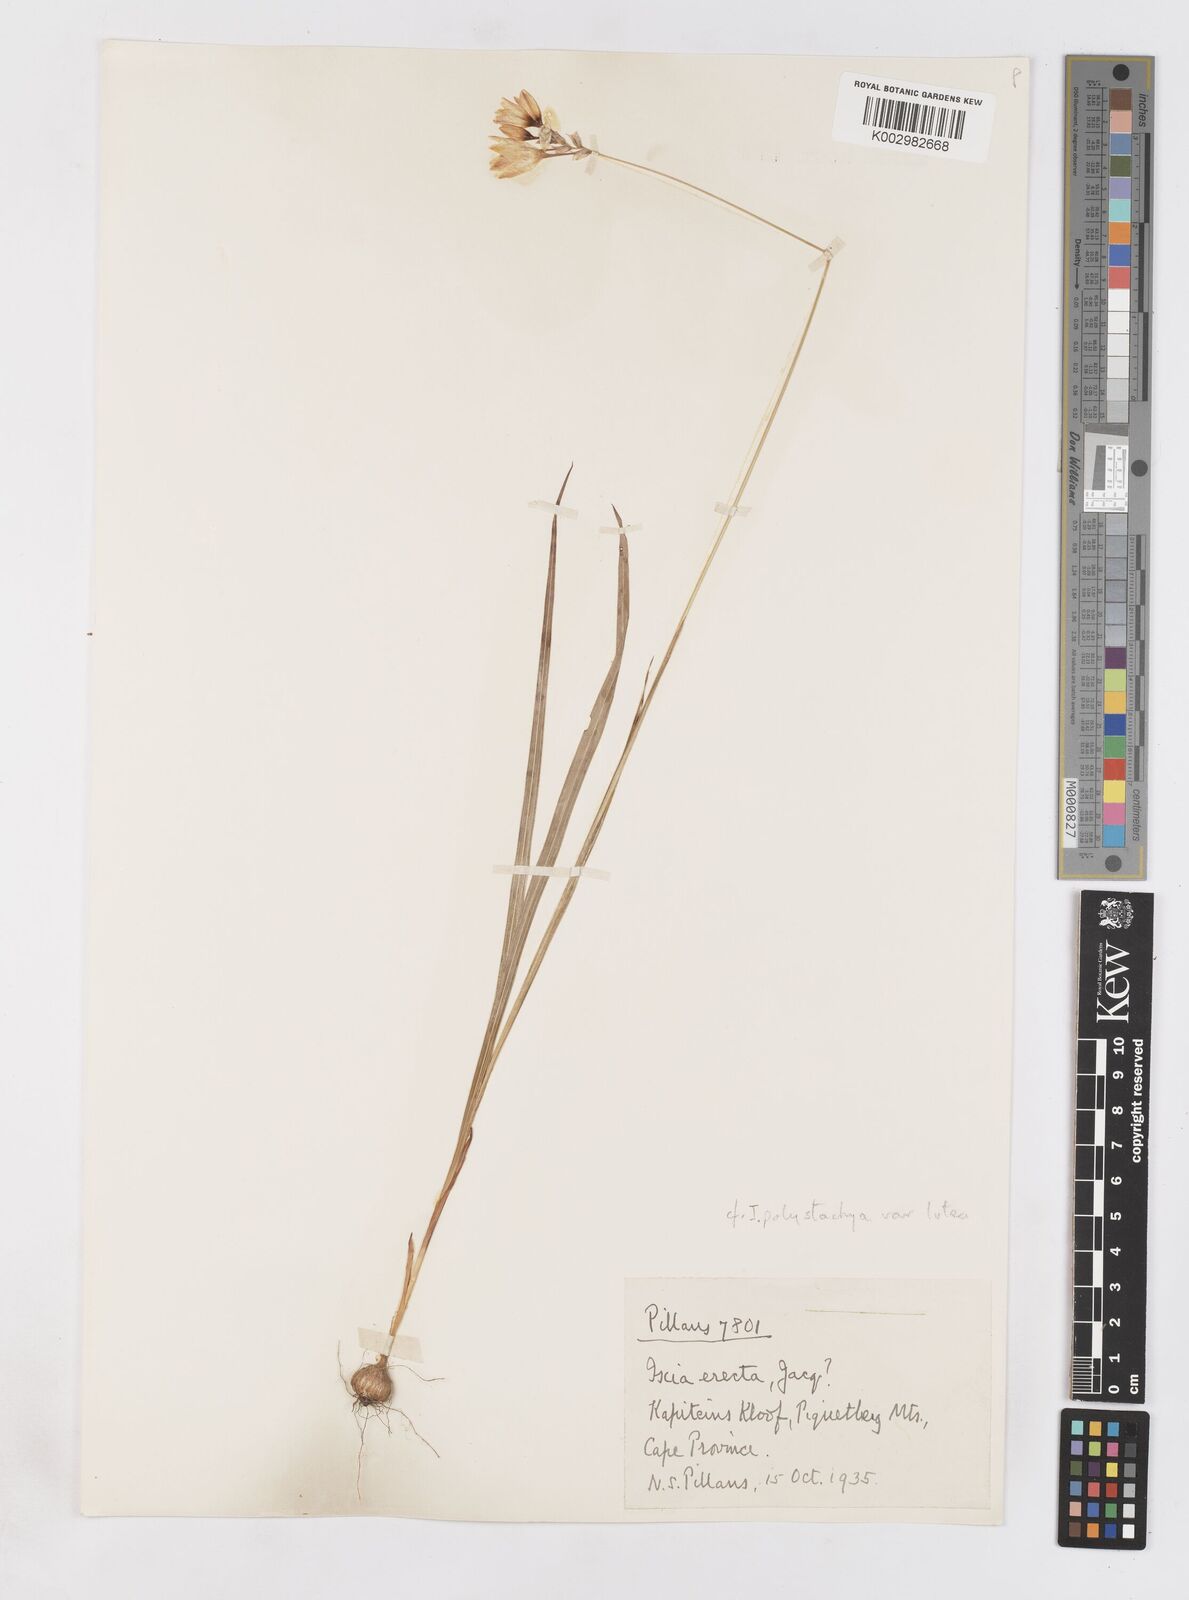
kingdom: Plantae
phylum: Tracheophyta
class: Liliopsida
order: Asparagales
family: Iridaceae
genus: Ixia
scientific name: Ixia polystachya
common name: White-and-yellow-flower cornlily
